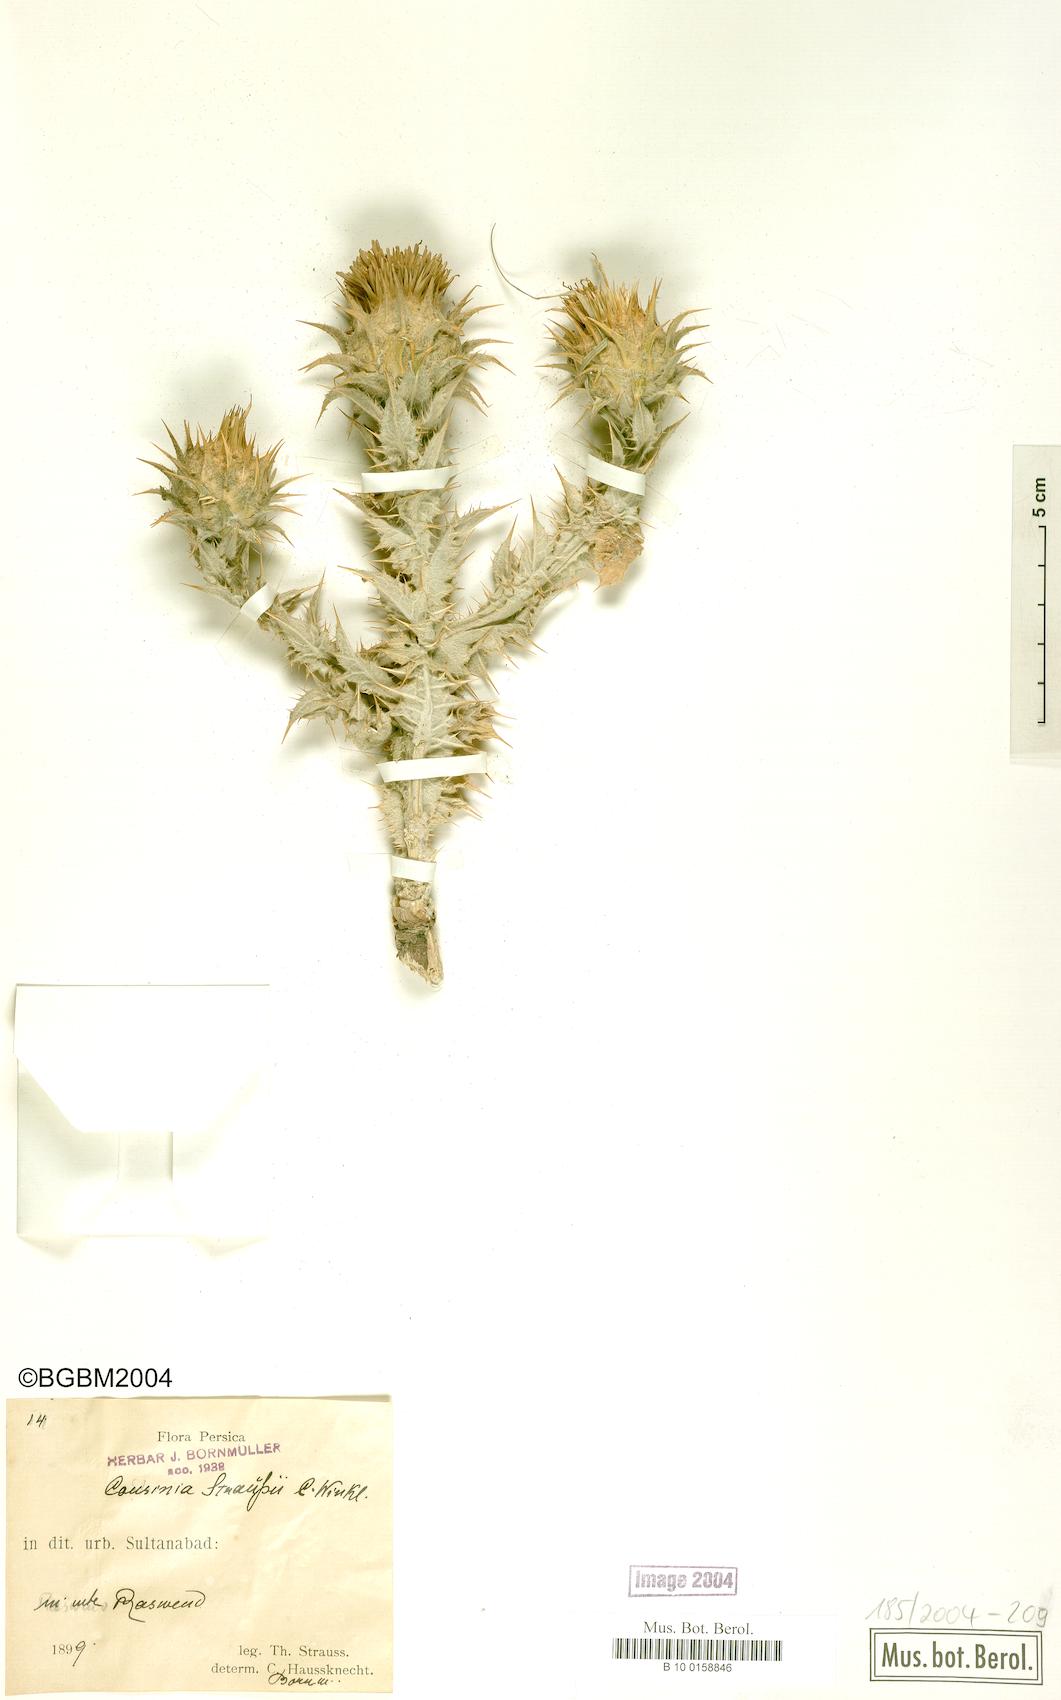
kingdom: Plantae
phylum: Tracheophyta
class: Magnoliopsida
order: Asterales
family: Asteraceae
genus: Cousinia
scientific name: Cousinia inflata
